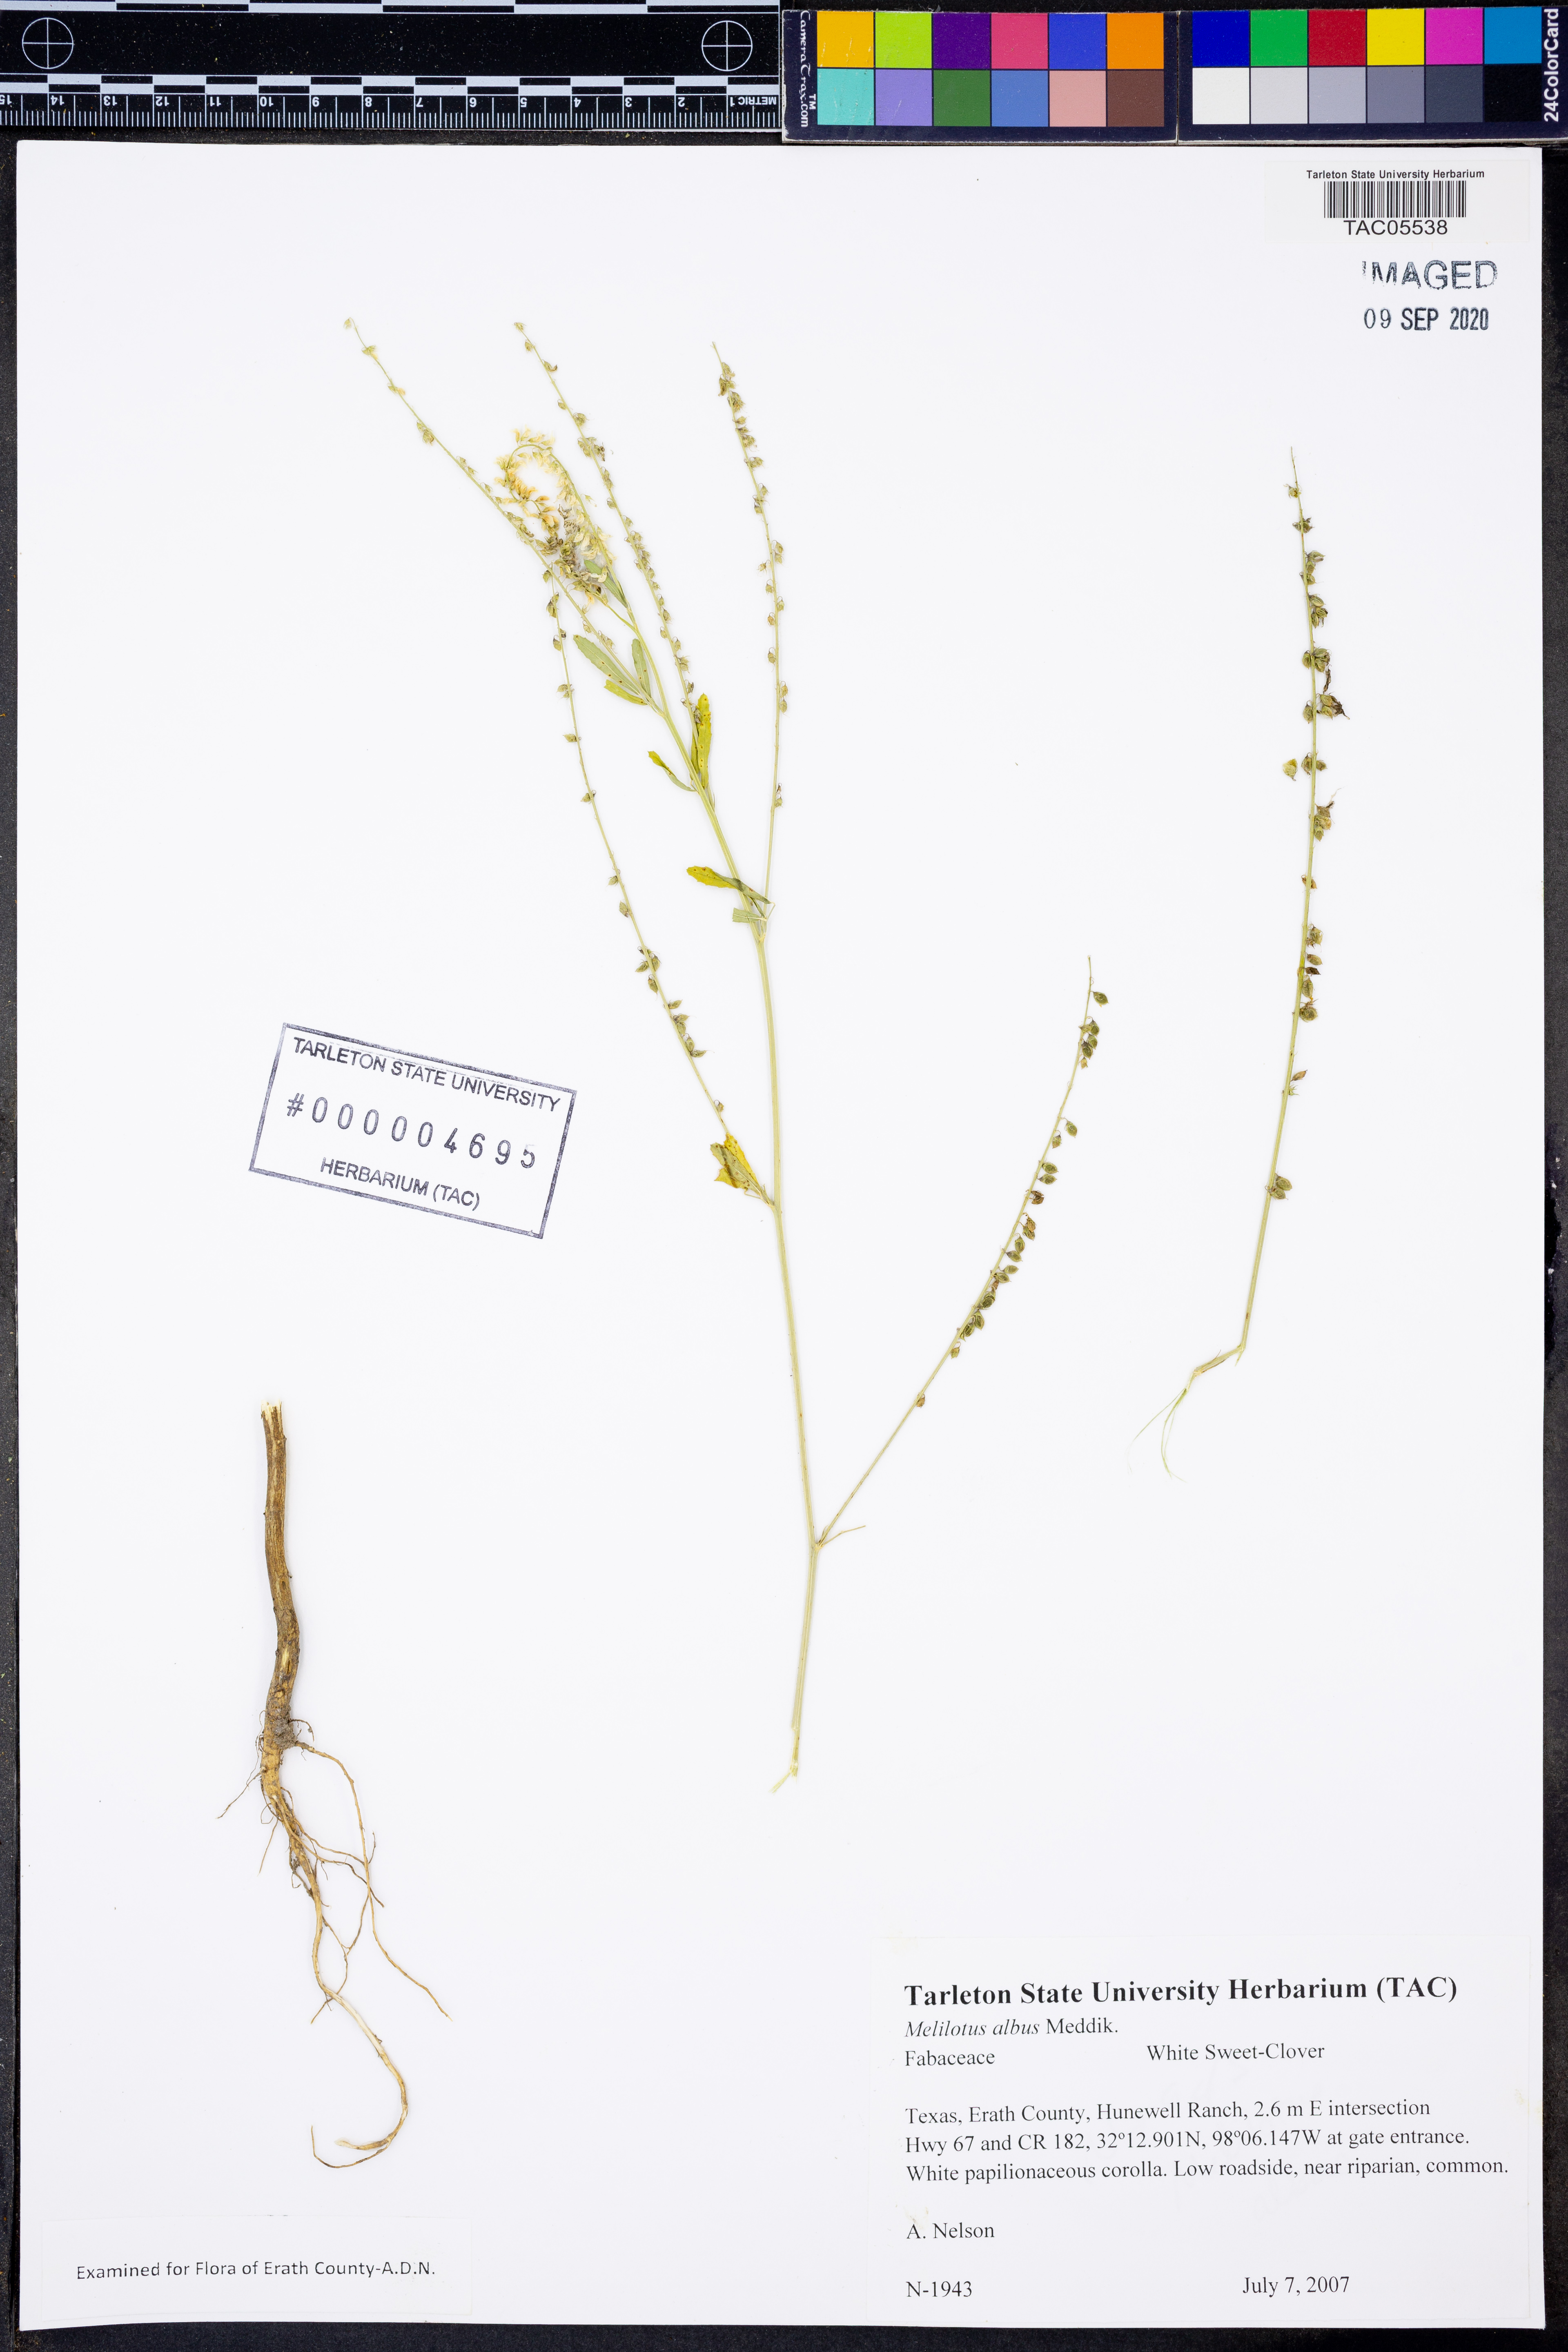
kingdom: Plantae
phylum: Tracheophyta
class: Magnoliopsida
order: Fabales
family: Fabaceae
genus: Melilotus
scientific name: Melilotus albus
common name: White melilot
